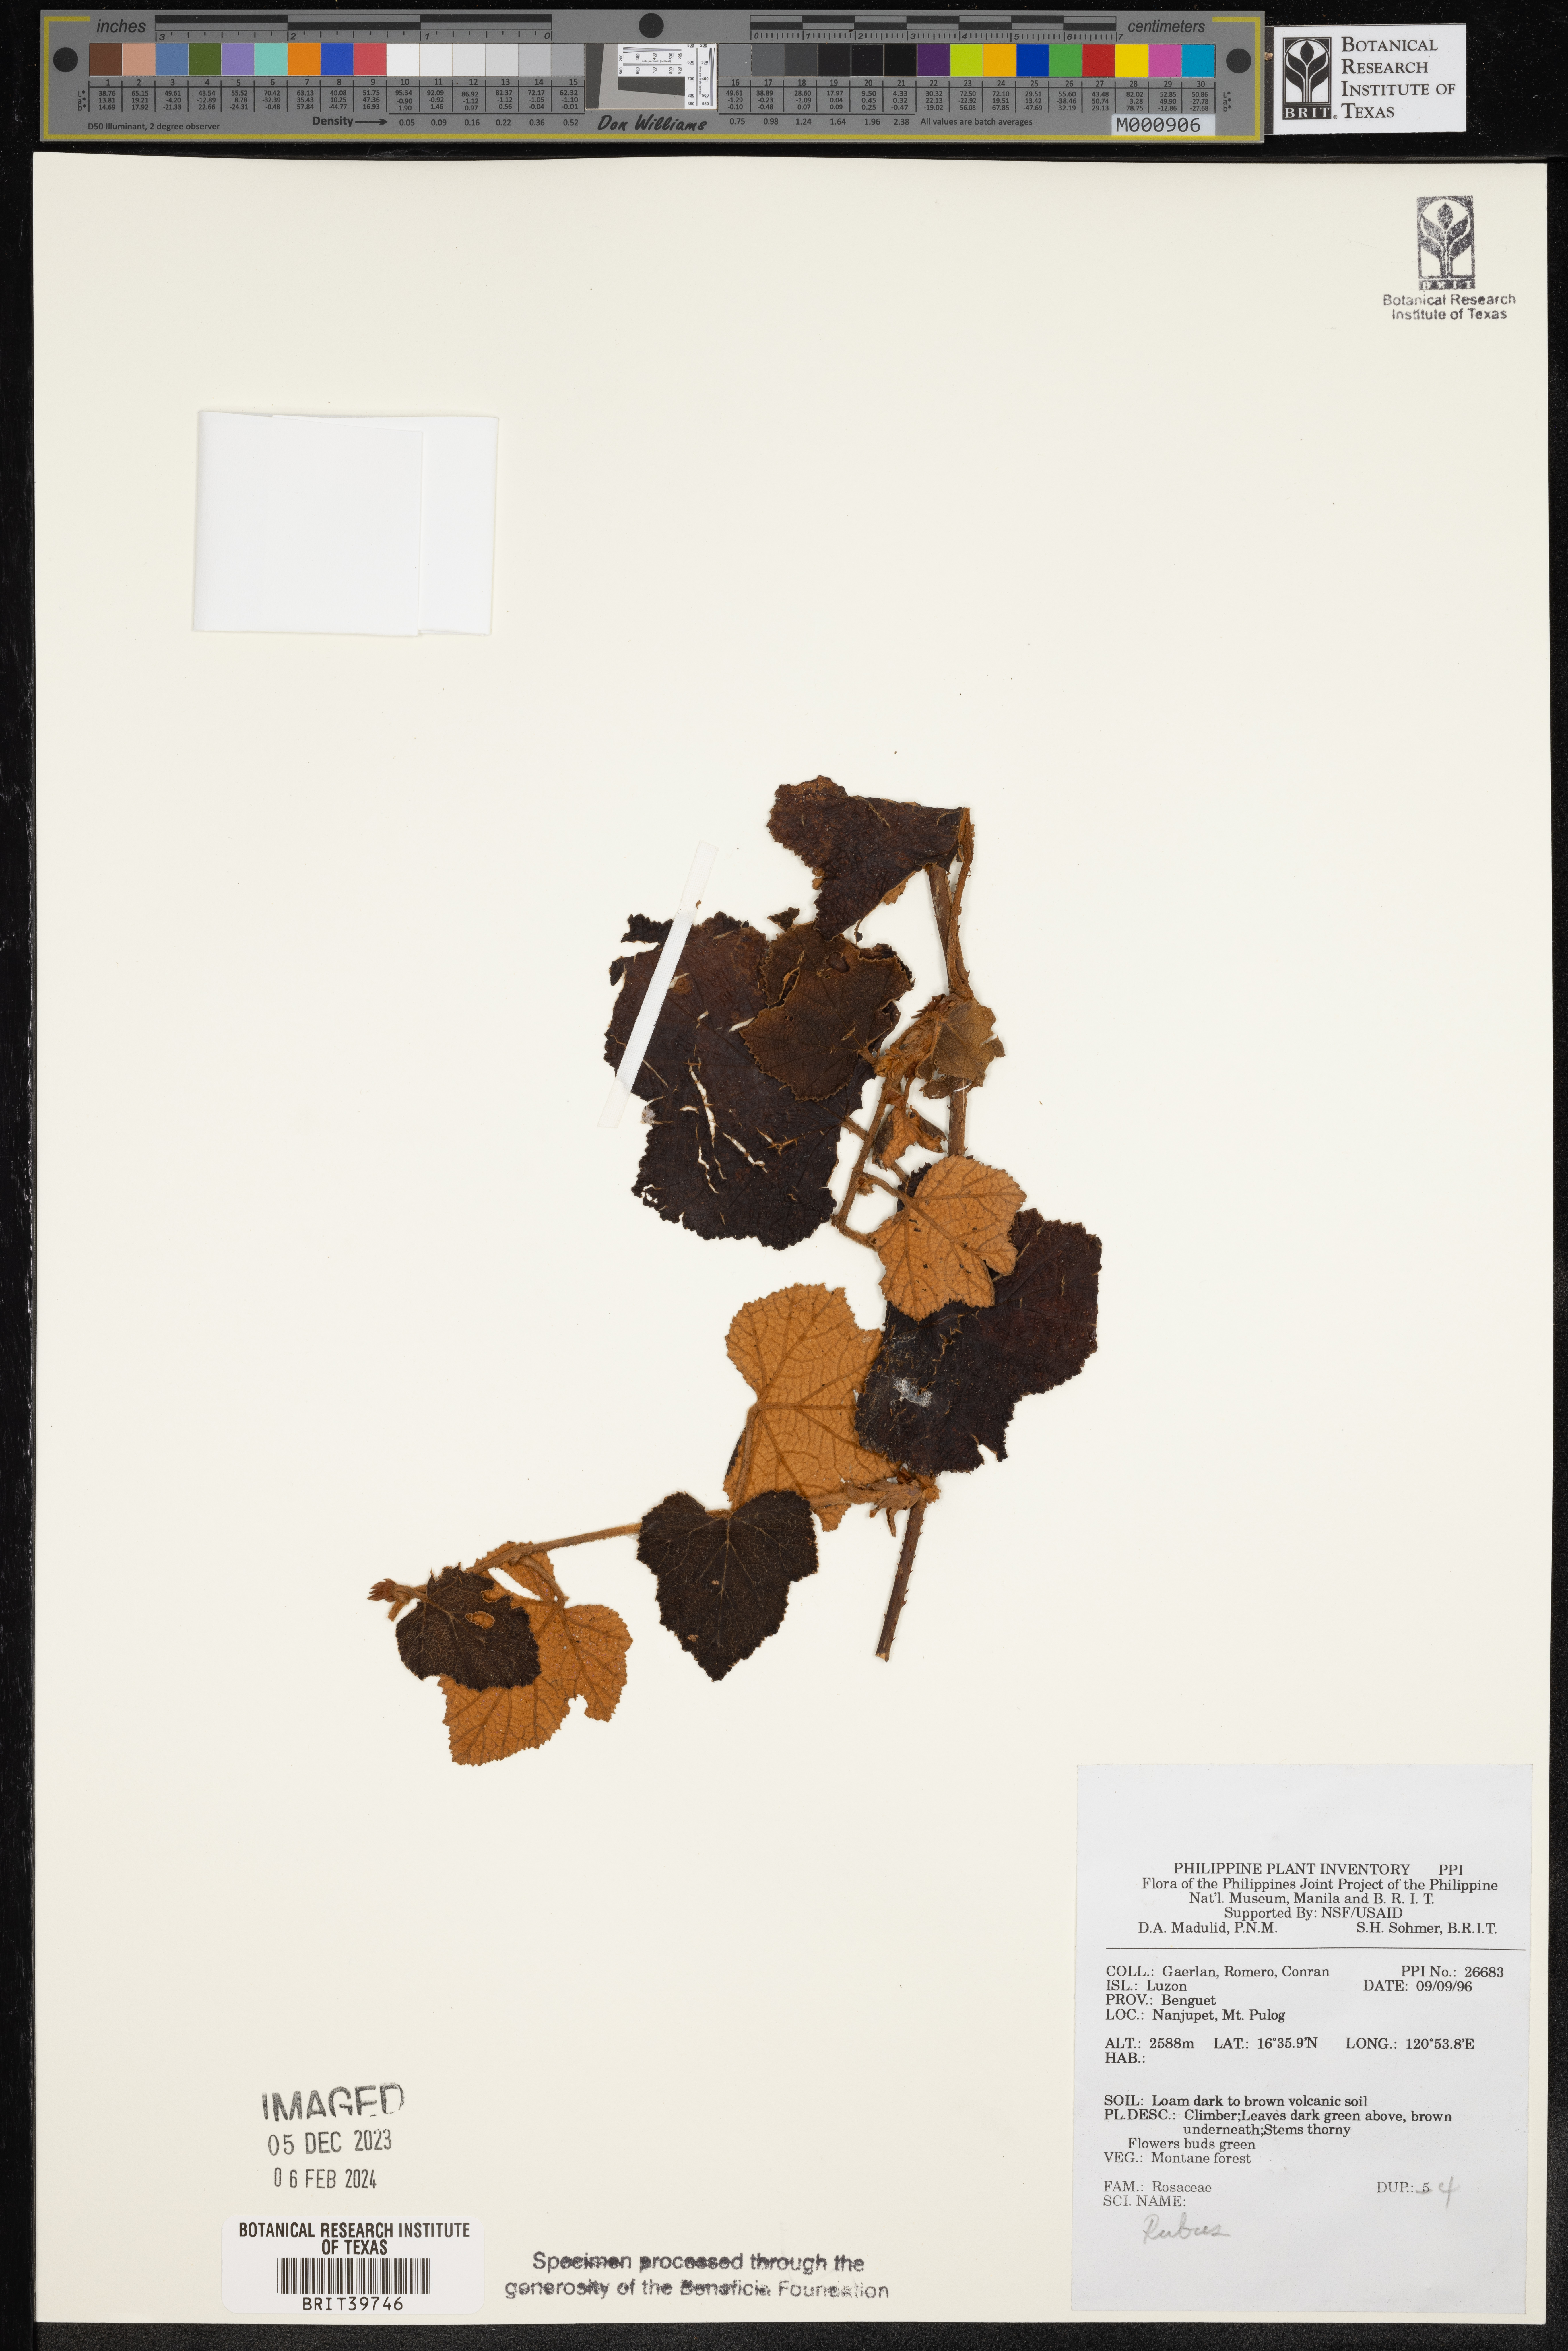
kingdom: Plantae
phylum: Tracheophyta
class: Magnoliopsida
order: Rosales
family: Rosaceae
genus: Rubus
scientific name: Rubus
